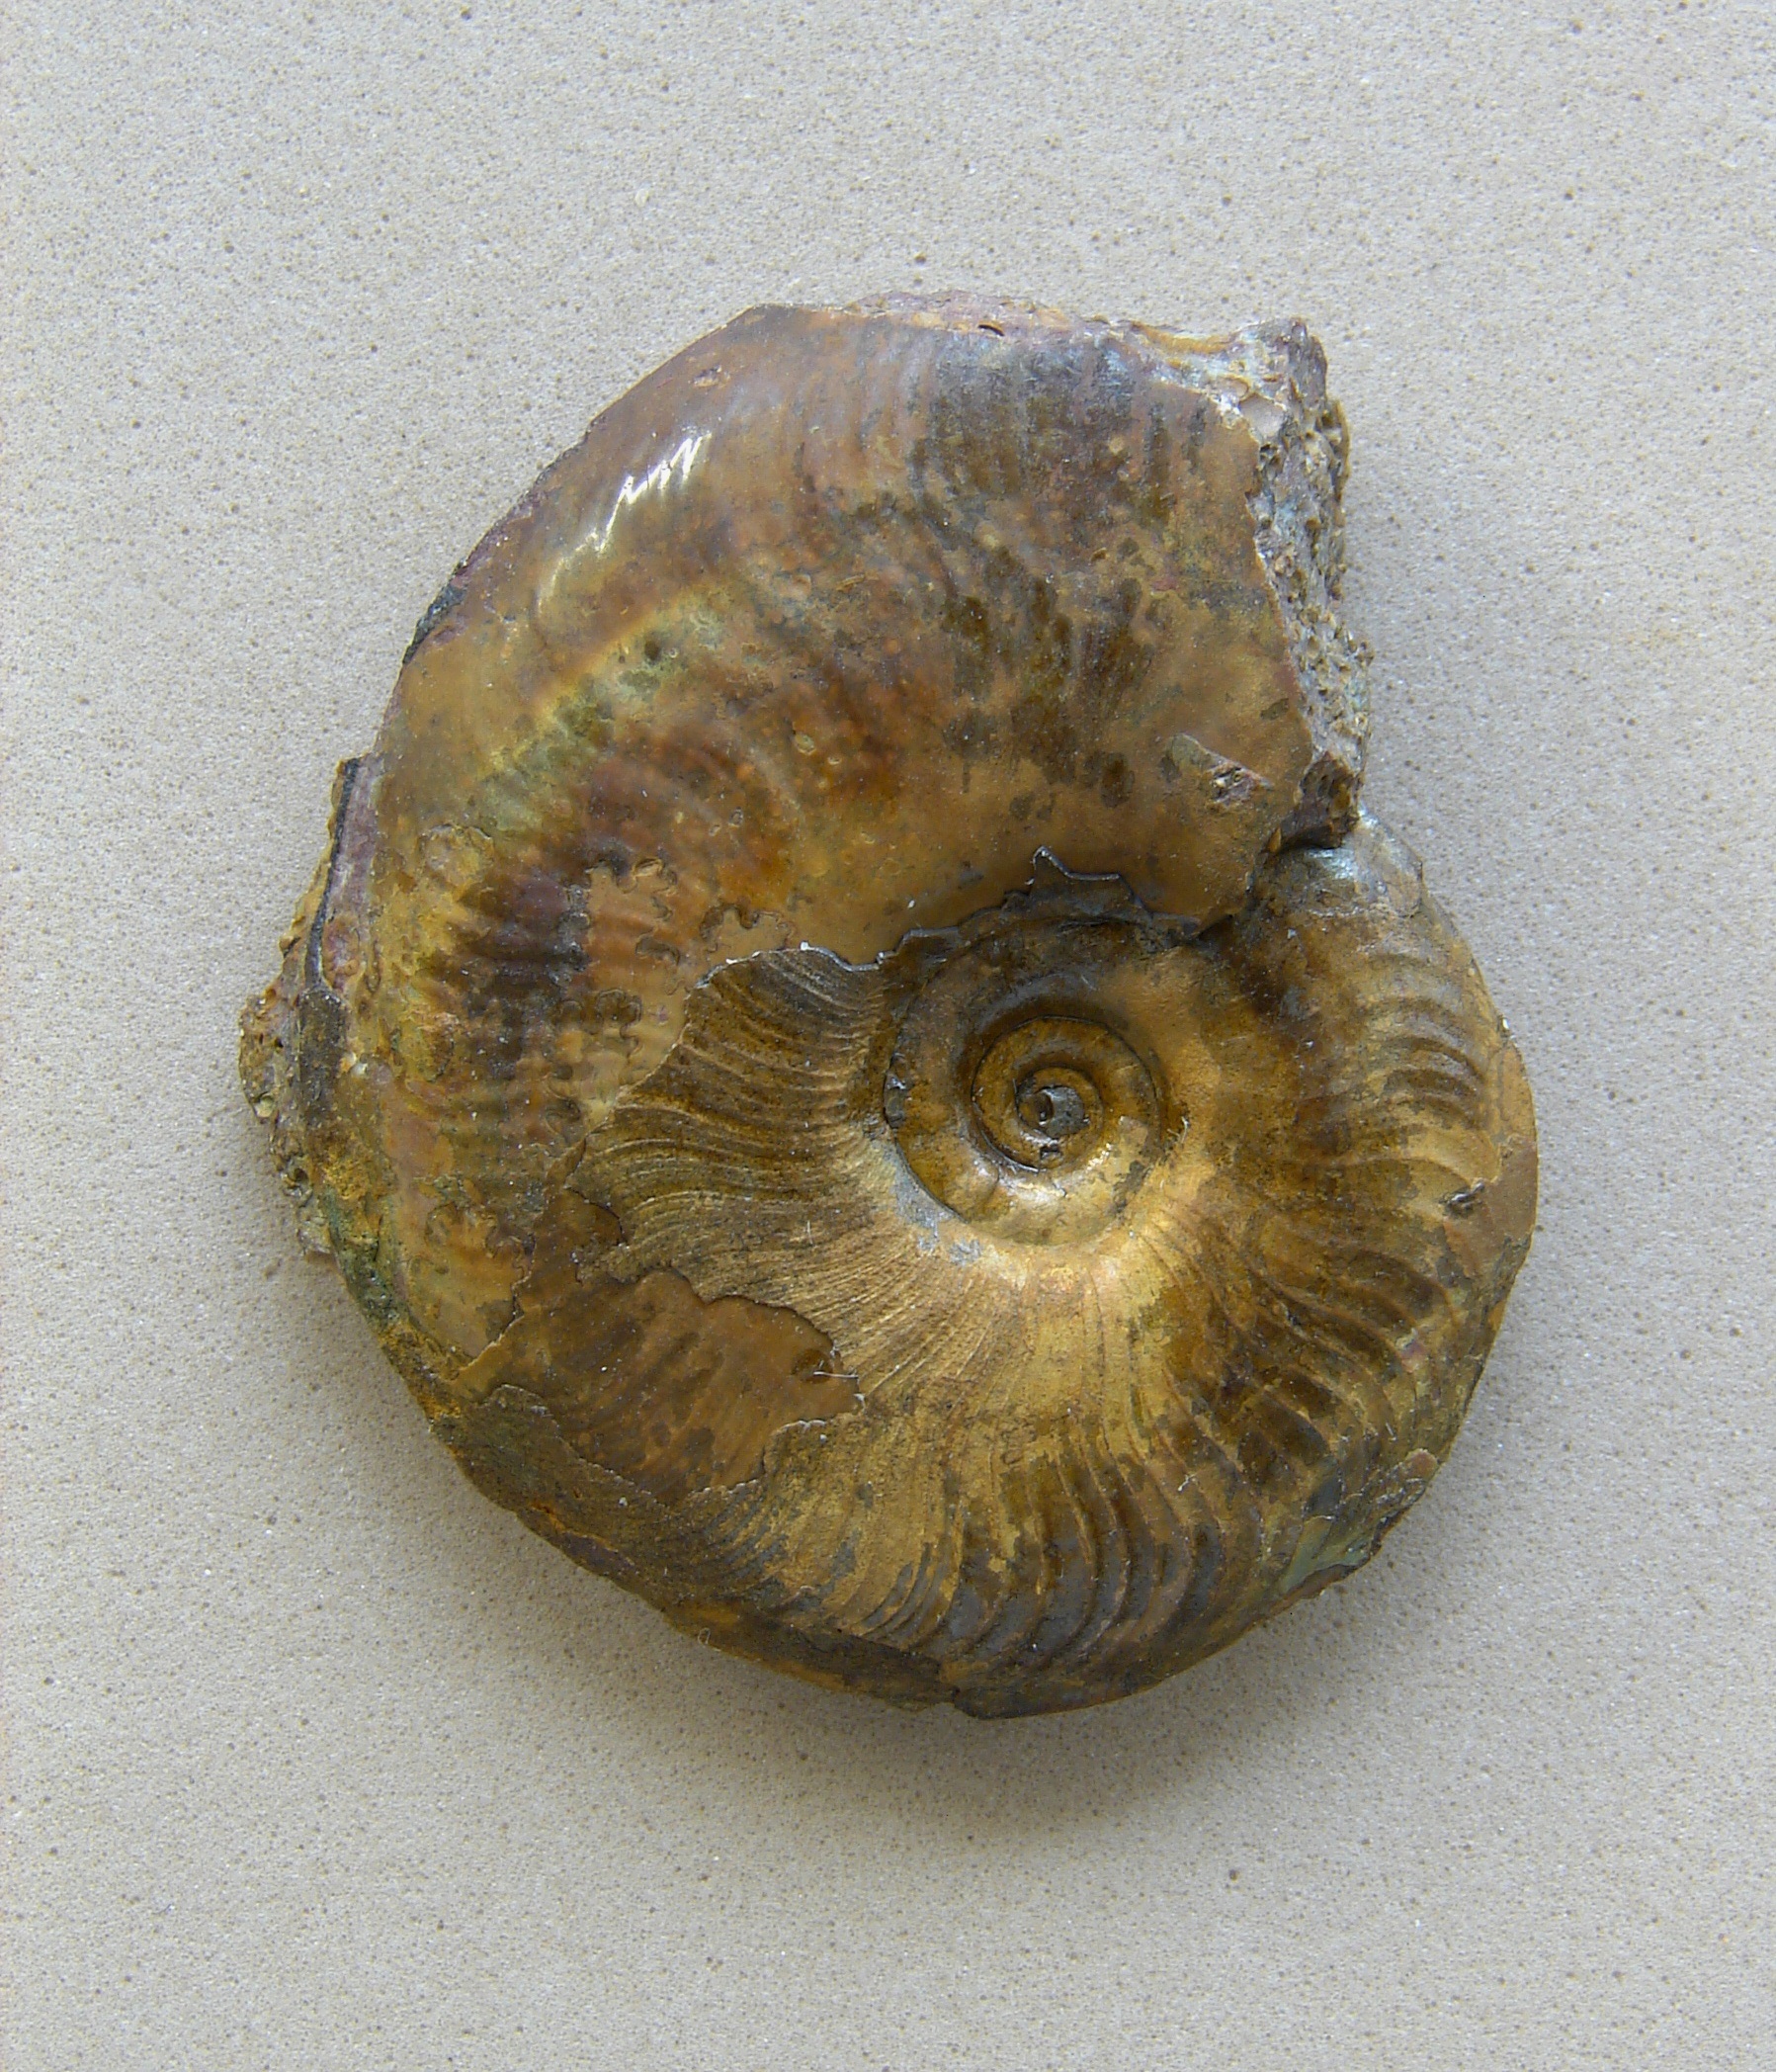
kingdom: Animalia
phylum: Mollusca
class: Cephalopoda
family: Hildoceratidae
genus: Pleydellia
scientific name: Pleydellia misera
